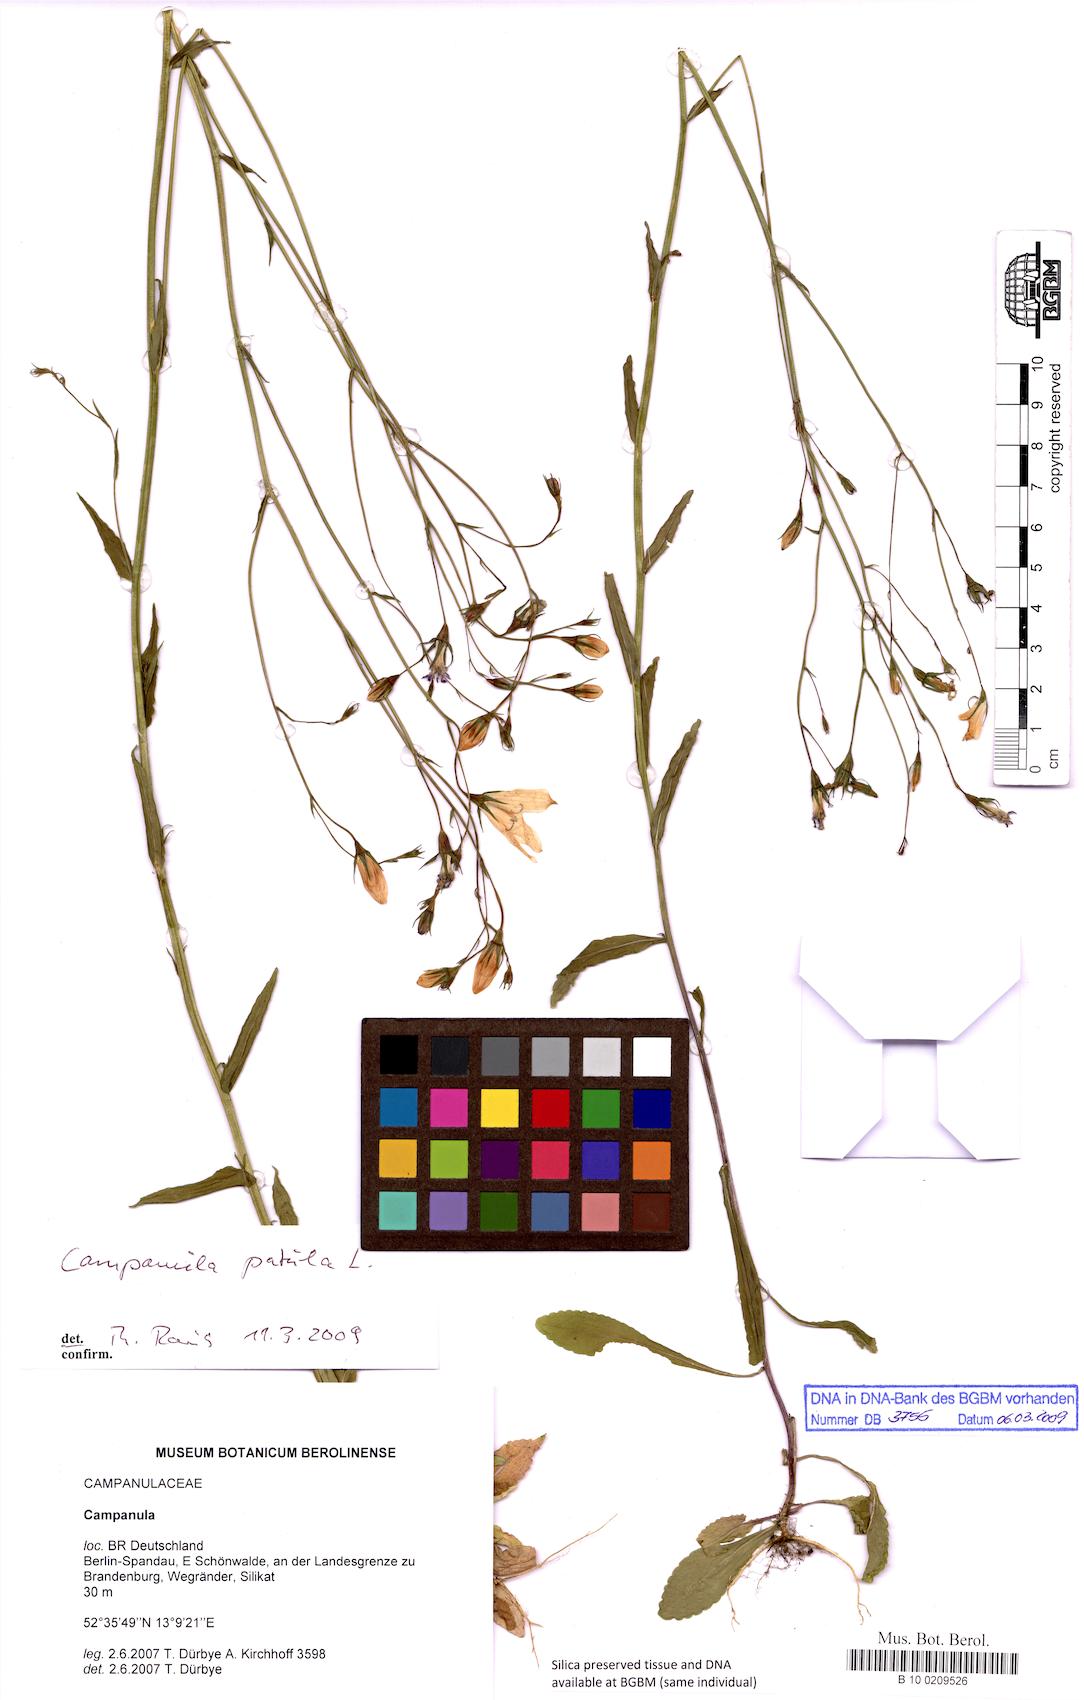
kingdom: Plantae
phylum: Tracheophyta
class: Magnoliopsida
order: Asterales
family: Campanulaceae
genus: Campanula
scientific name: Campanula patula
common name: Spreading bellflower
